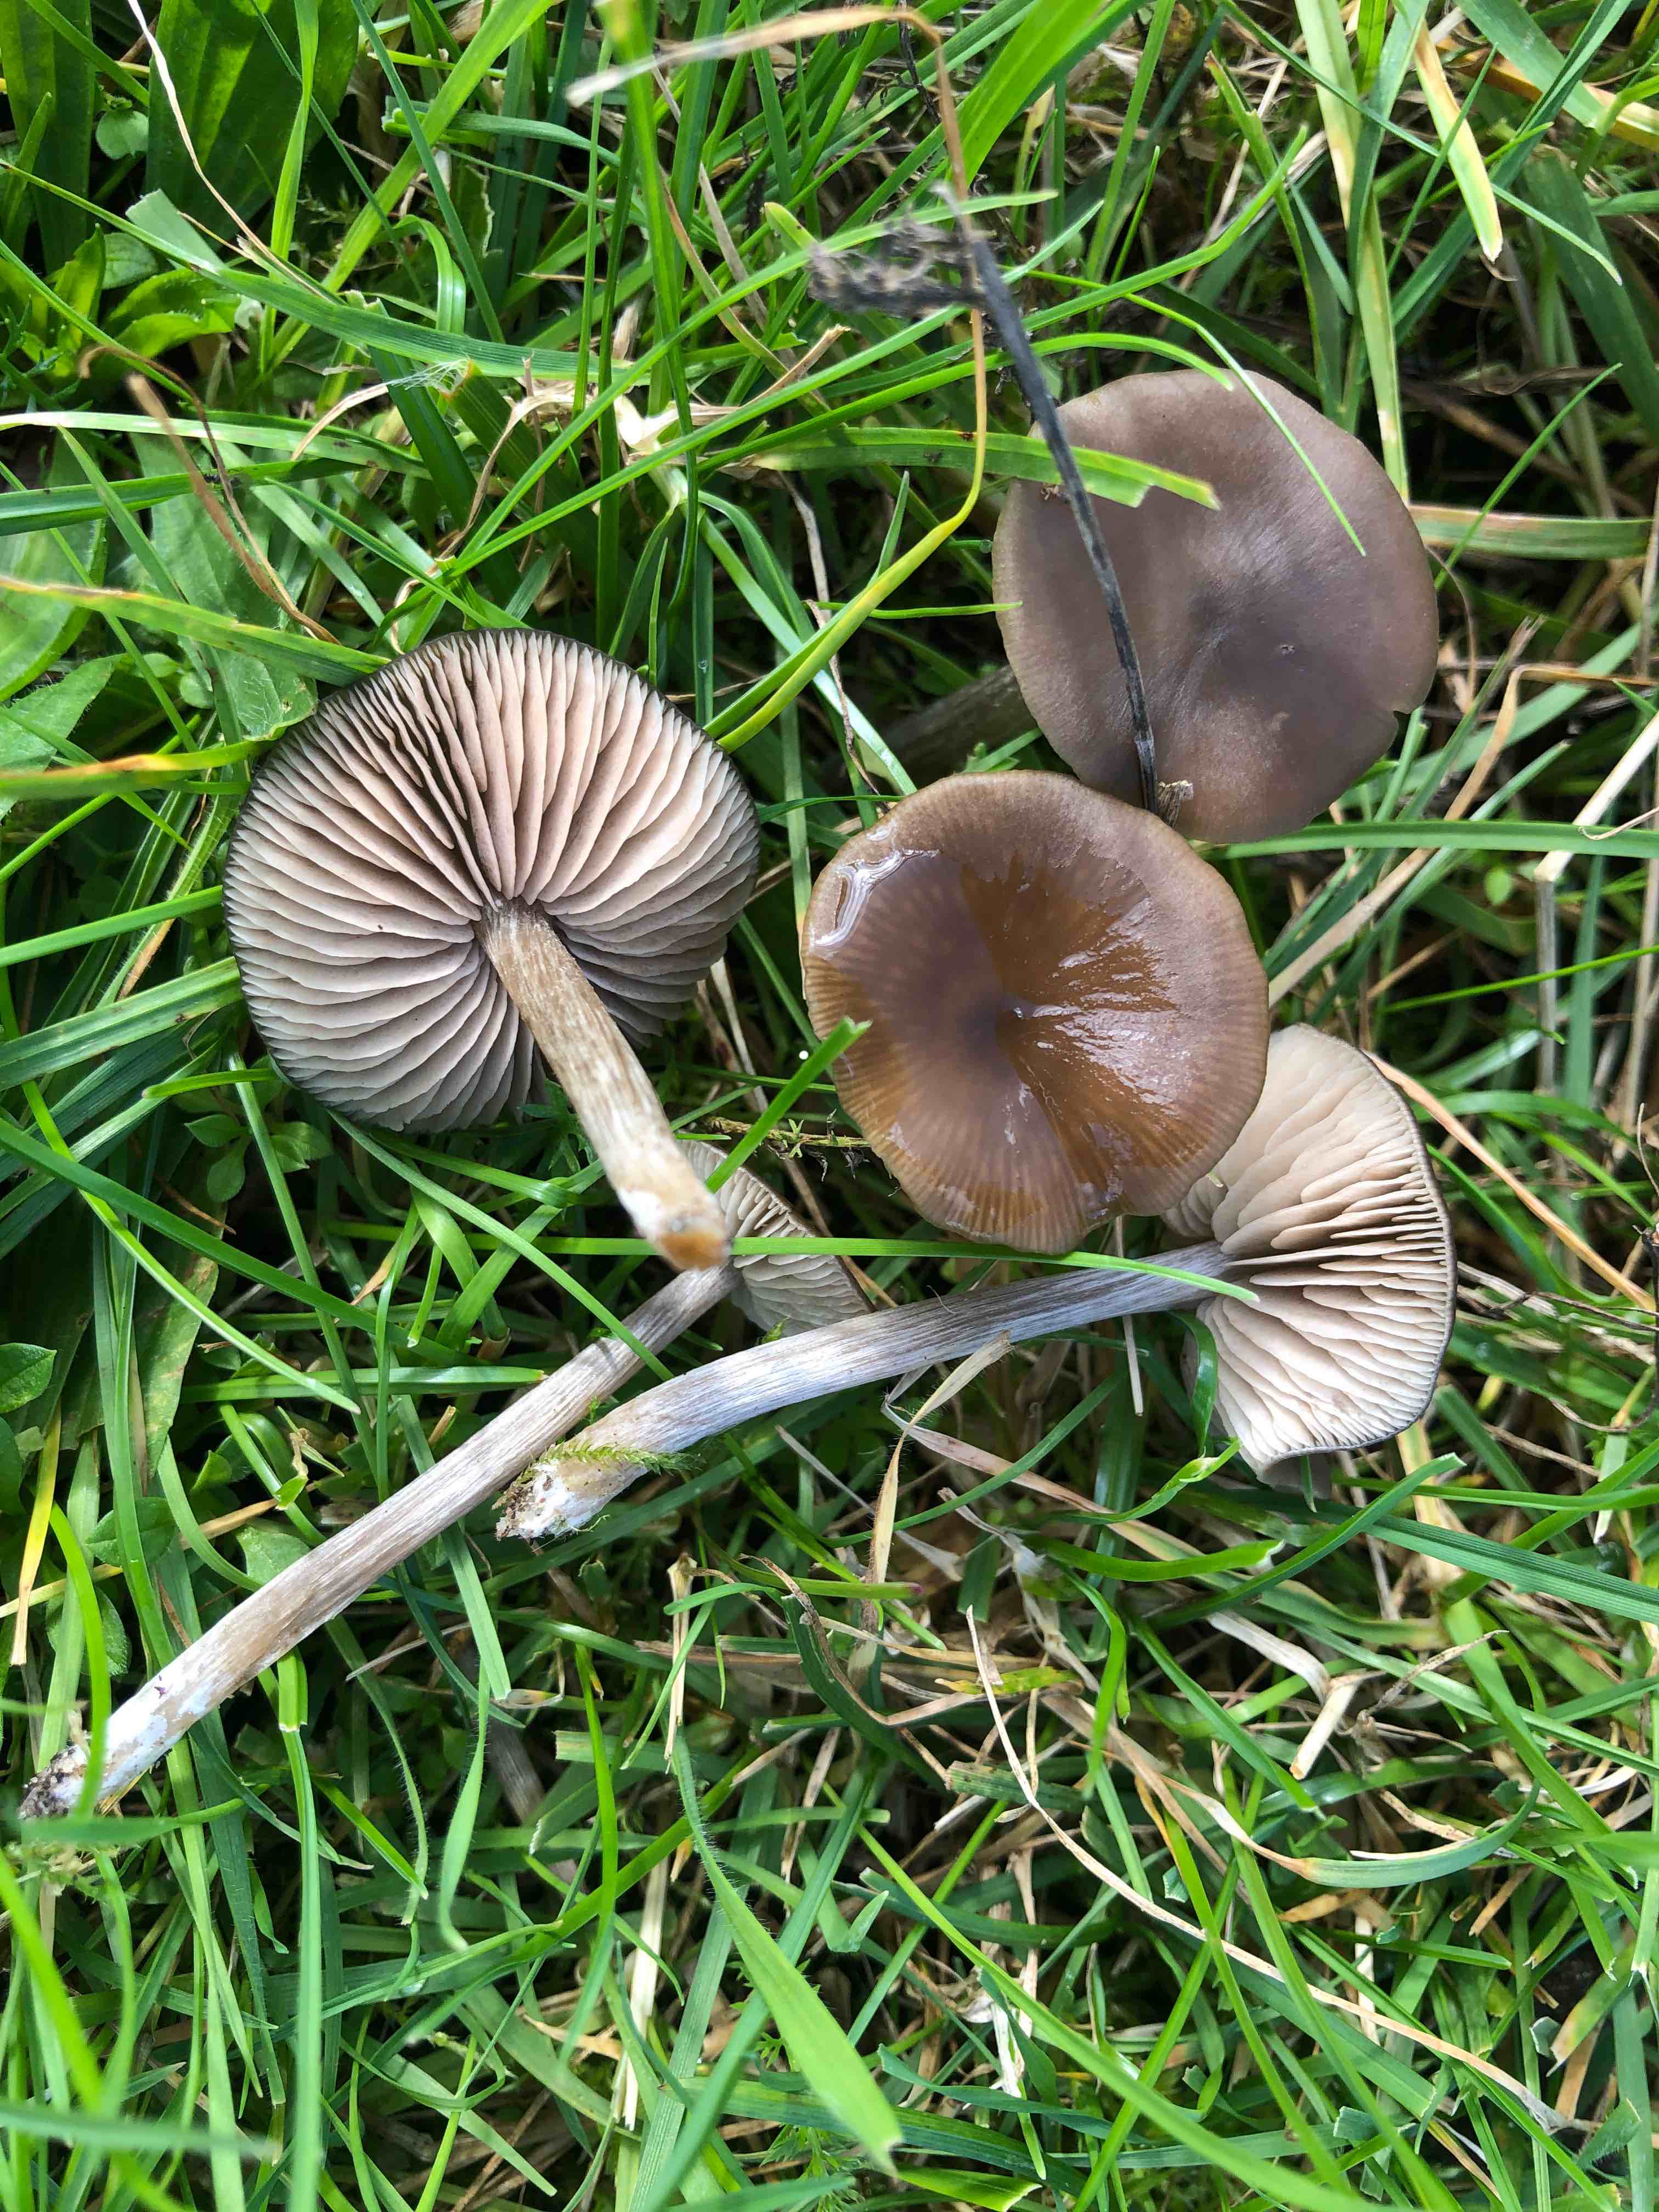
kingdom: Fungi
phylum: Basidiomycota
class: Agaricomycetes
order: Agaricales
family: Entolomataceae
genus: Entoloma
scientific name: Entoloma sericeum
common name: silkeglinsende rødblad
